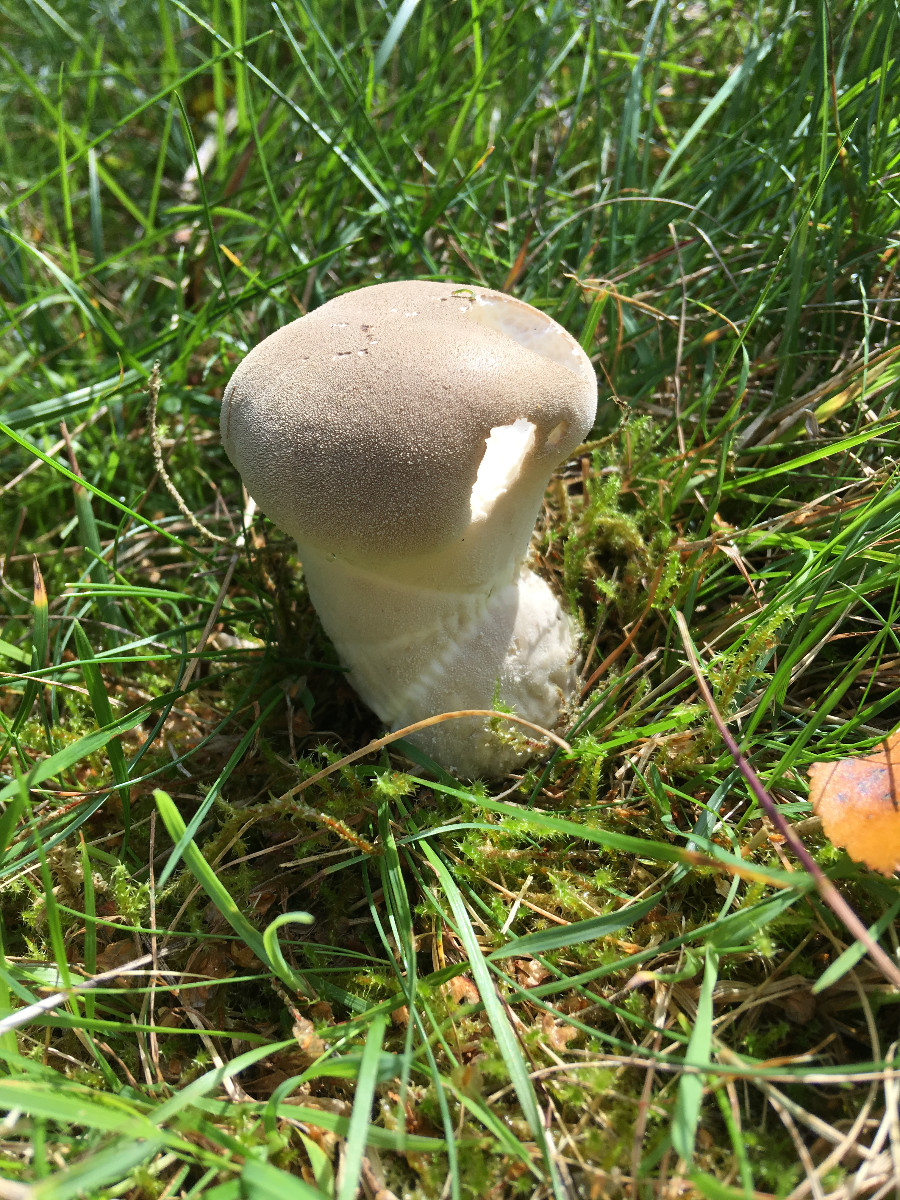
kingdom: Fungi
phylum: Basidiomycota
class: Agaricomycetes
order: Agaricales
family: Lycoperdaceae
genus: Lycoperdon
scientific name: Lycoperdon excipuliforme
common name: højstokket støvbold
